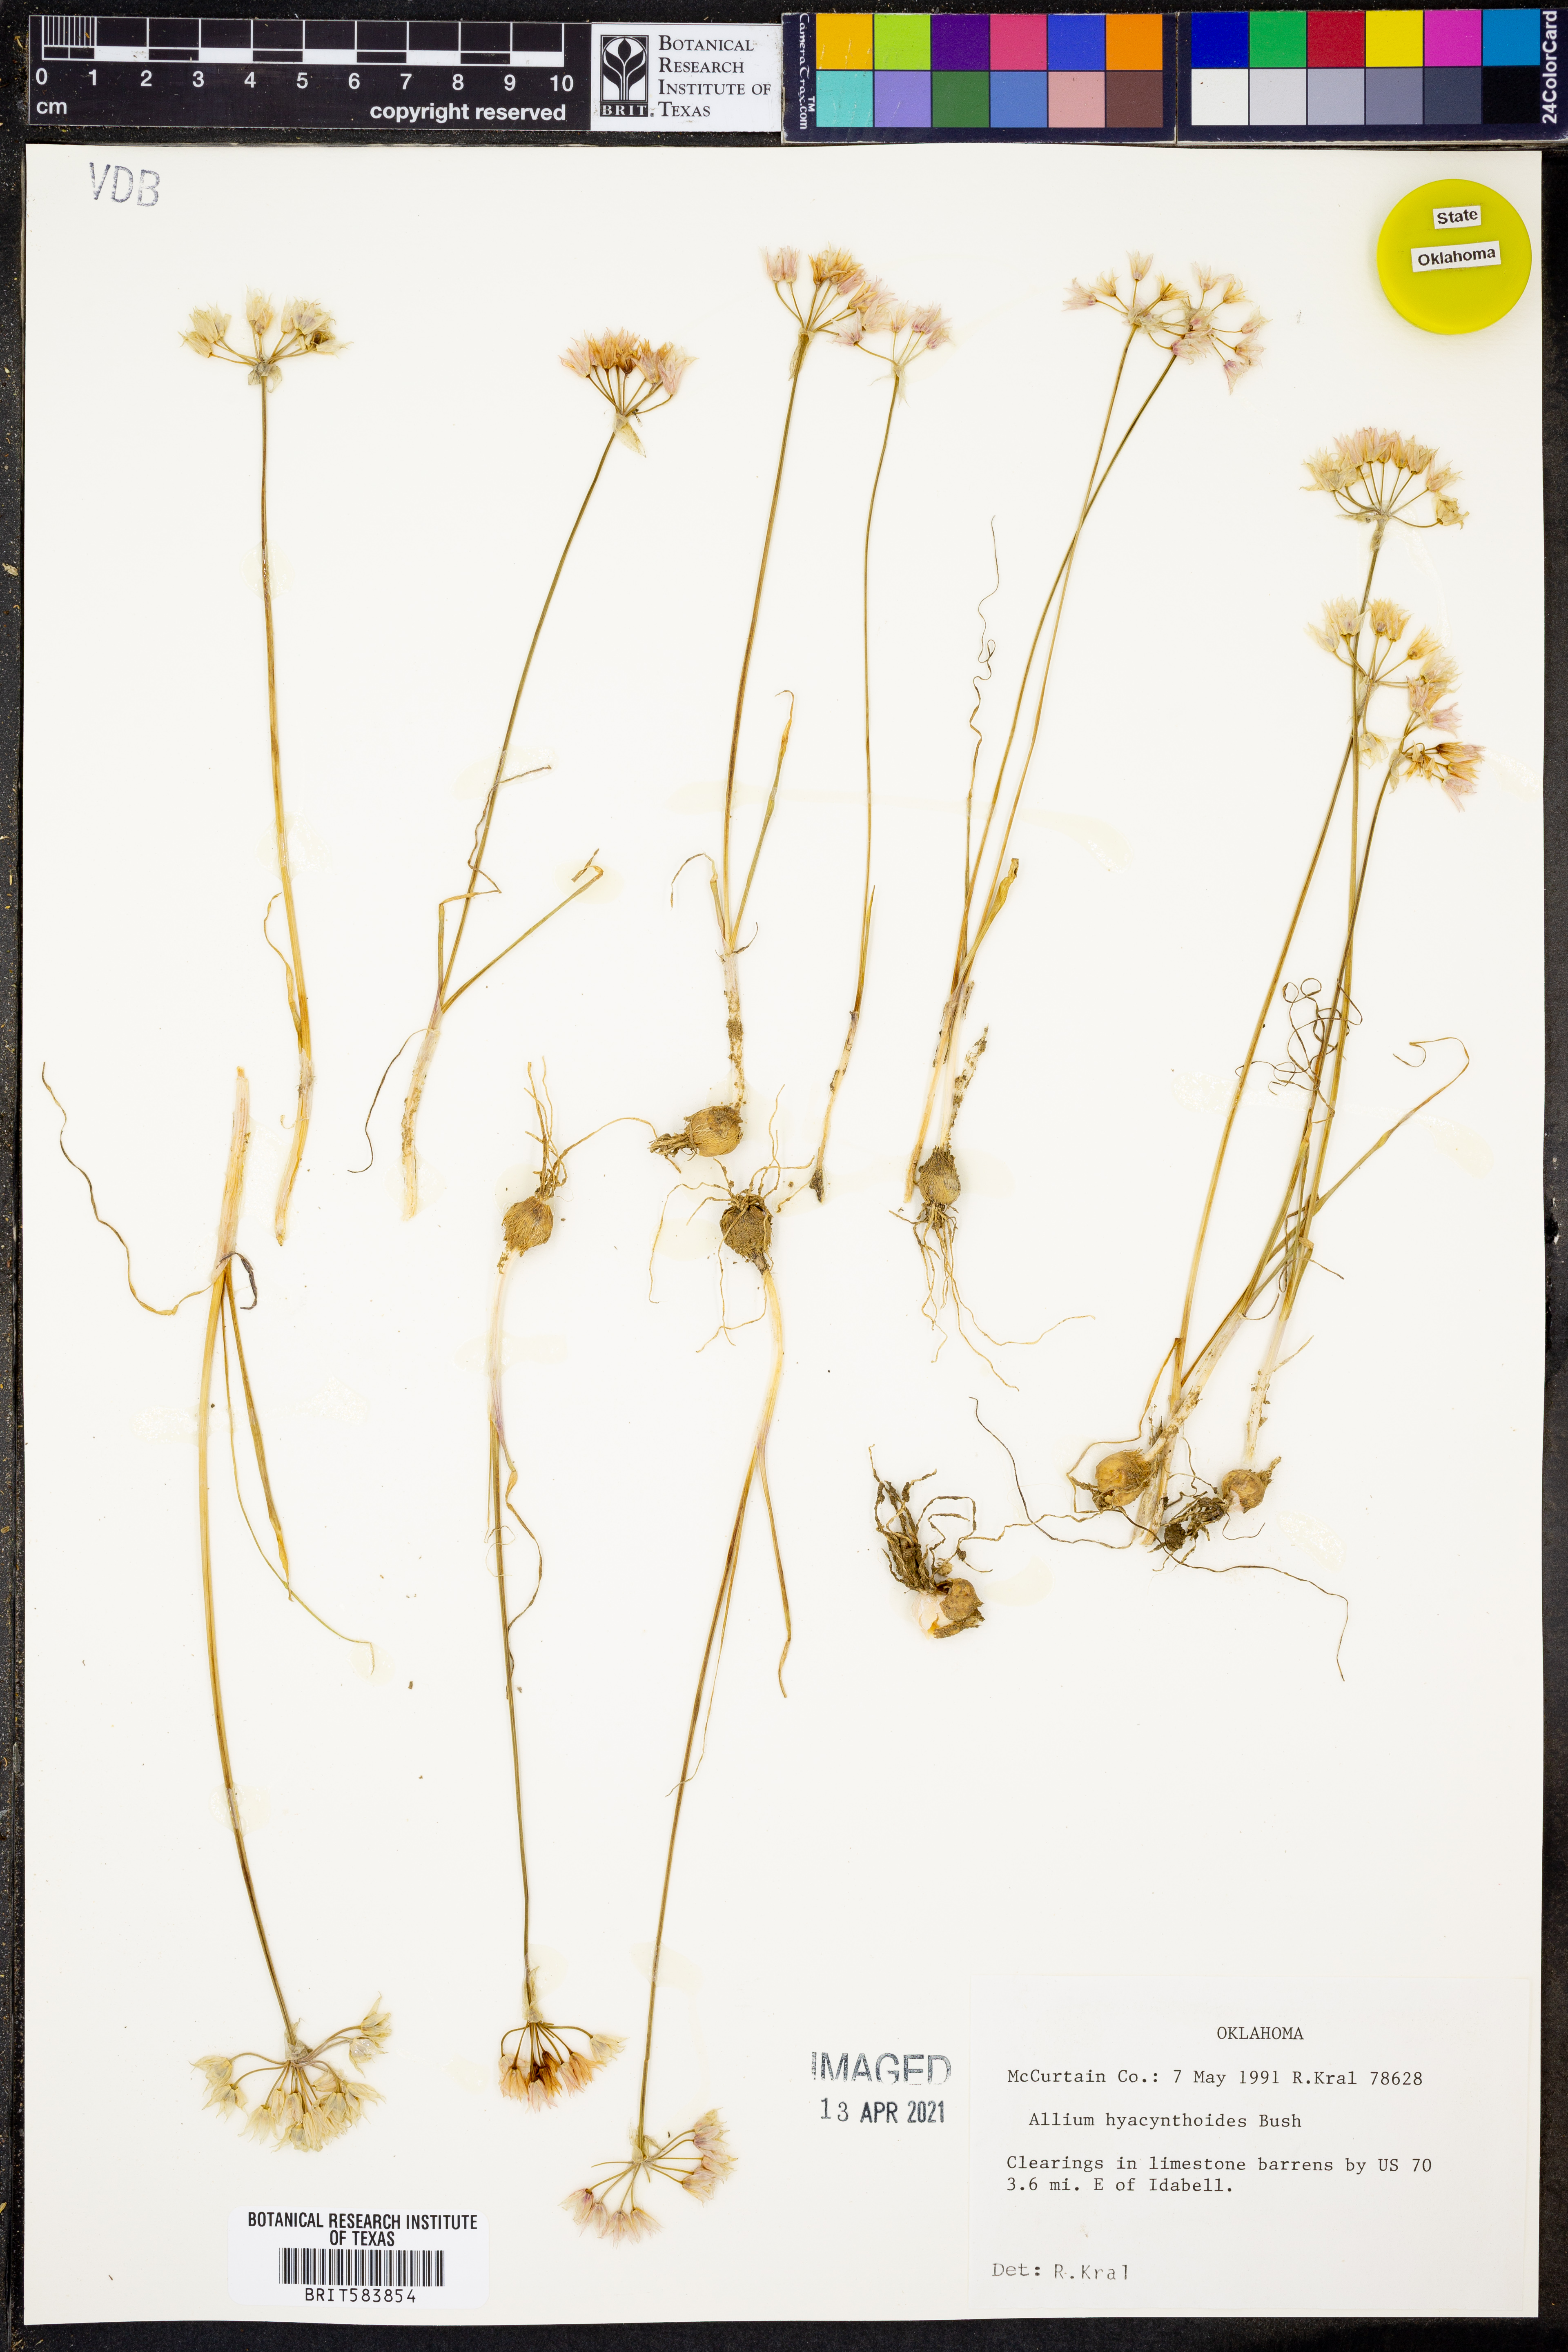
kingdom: Plantae
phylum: Tracheophyta
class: Liliopsida
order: Asparagales
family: Amaryllidaceae
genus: Allium
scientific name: Allium canadense
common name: Meadow garlic
